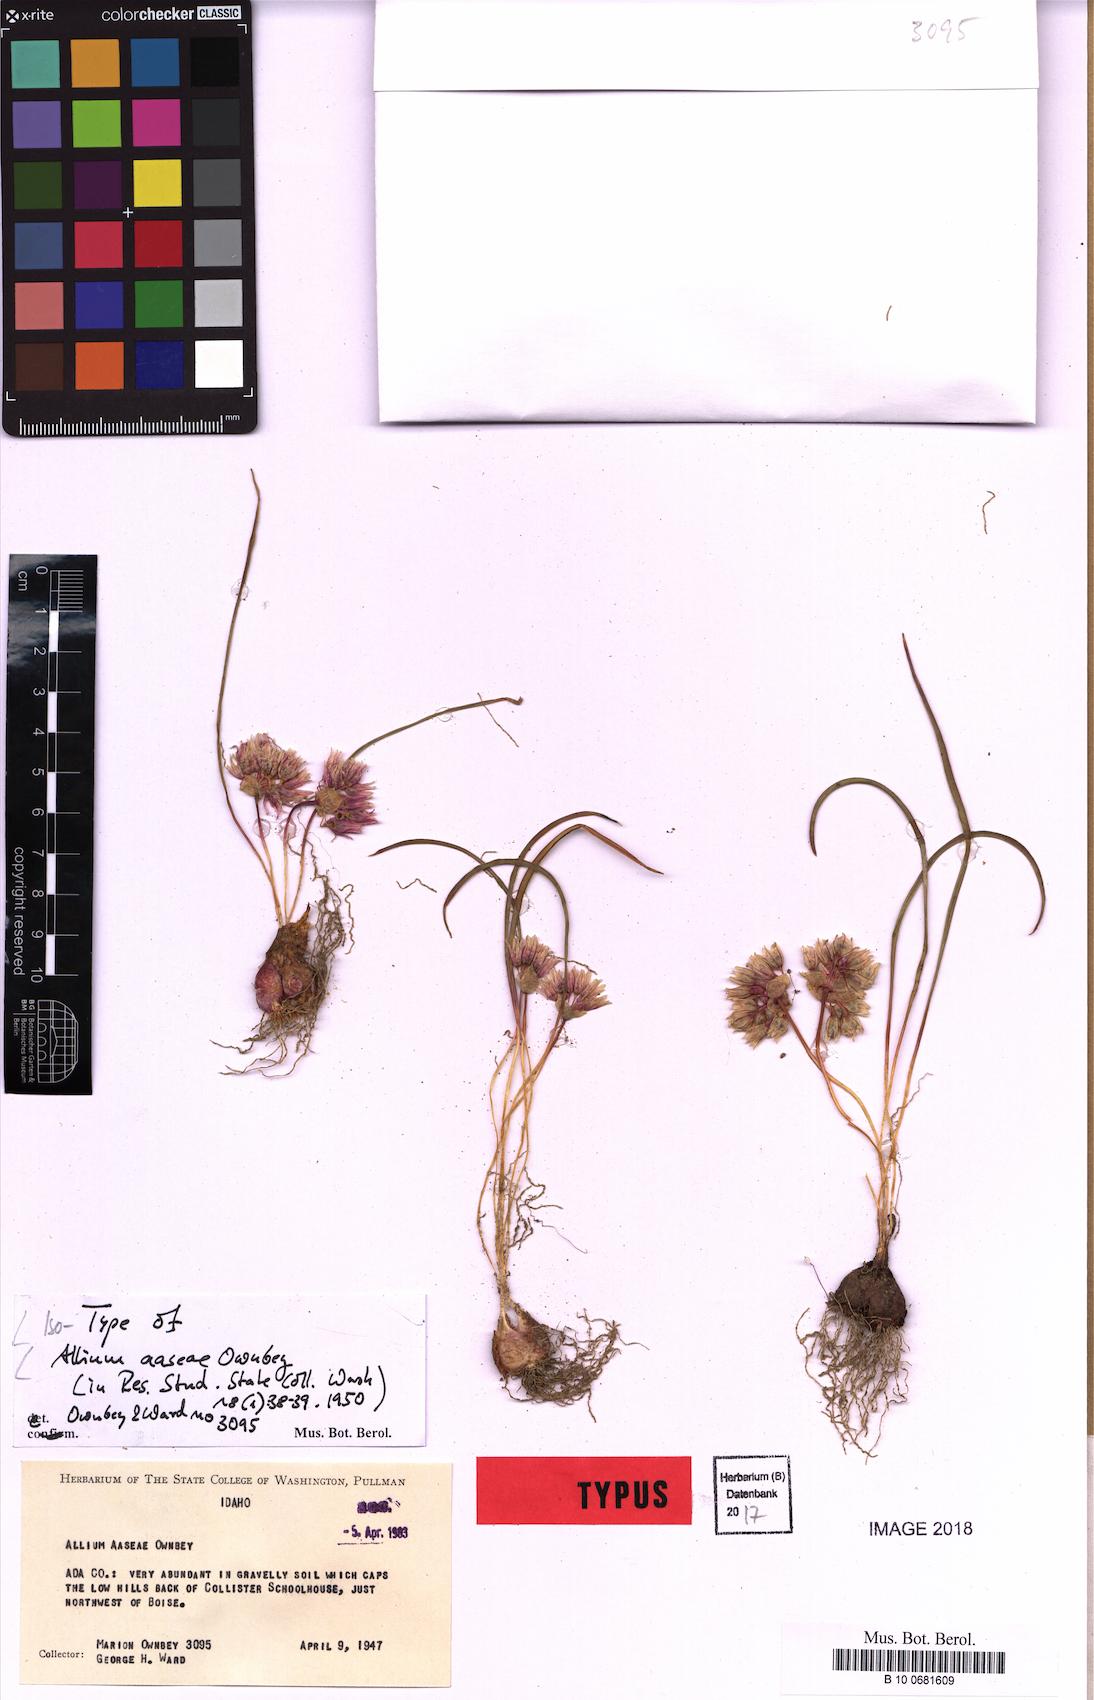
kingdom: Plantae
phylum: Tracheophyta
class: Liliopsida
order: Asparagales
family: Amaryllidaceae
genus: Allium
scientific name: Allium aaseae
